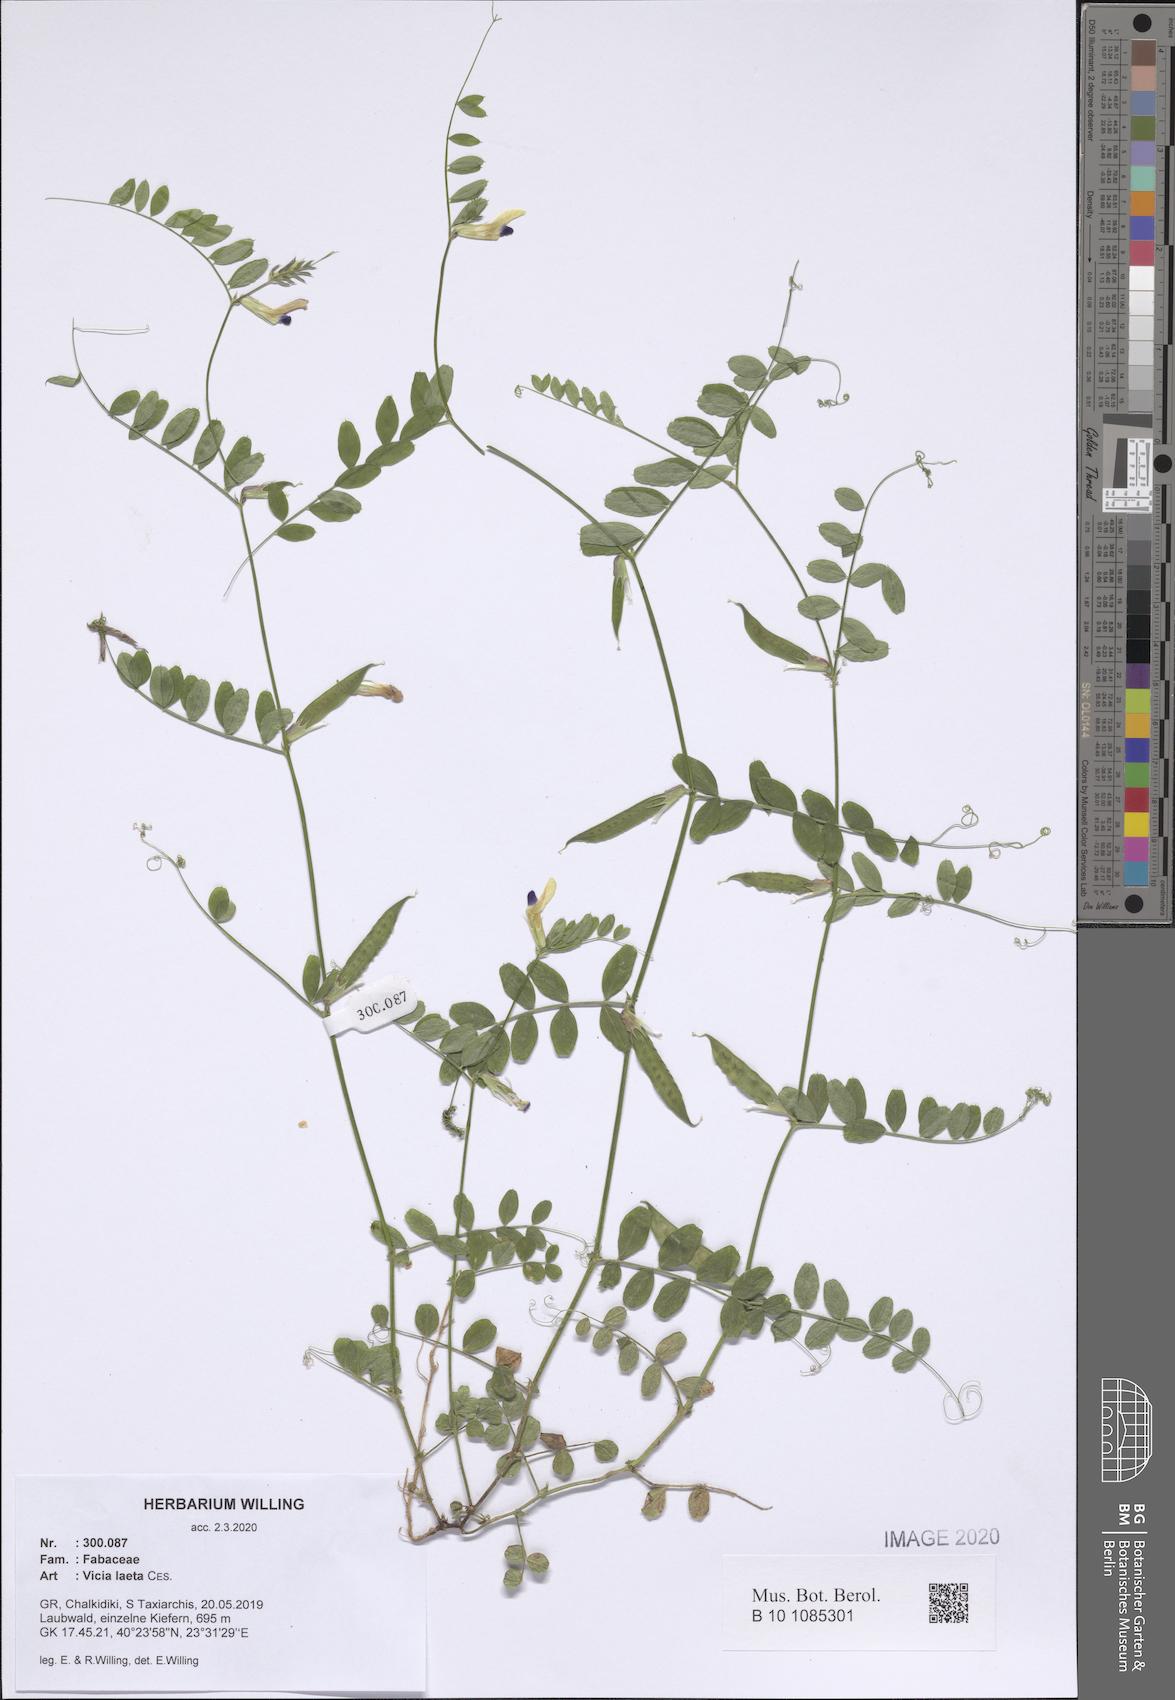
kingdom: Plantae
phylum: Tracheophyta
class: Magnoliopsida
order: Fabales
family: Fabaceae
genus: Vicia
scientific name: Vicia laeta
